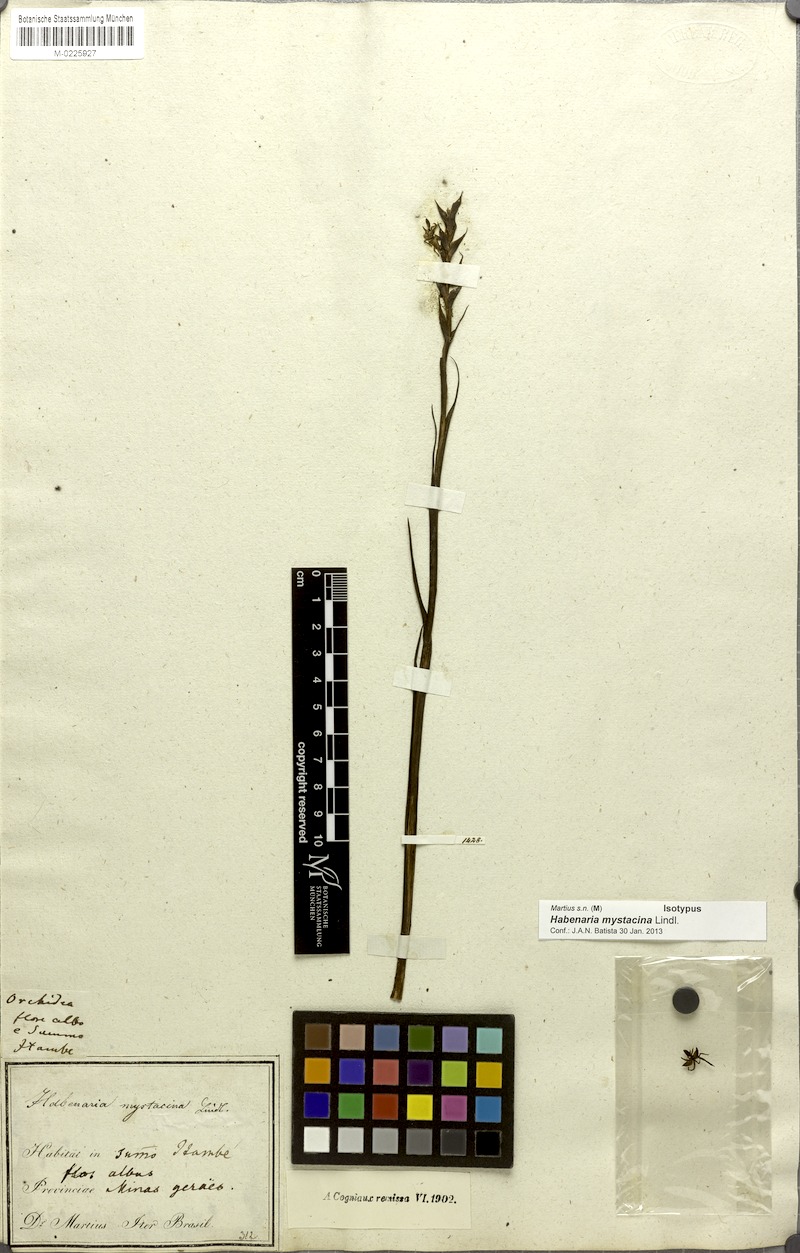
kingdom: Plantae
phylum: Tracheophyta
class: Liliopsida
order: Asparagales
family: Orchidaceae
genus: Habenaria
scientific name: Habenaria mystacina
